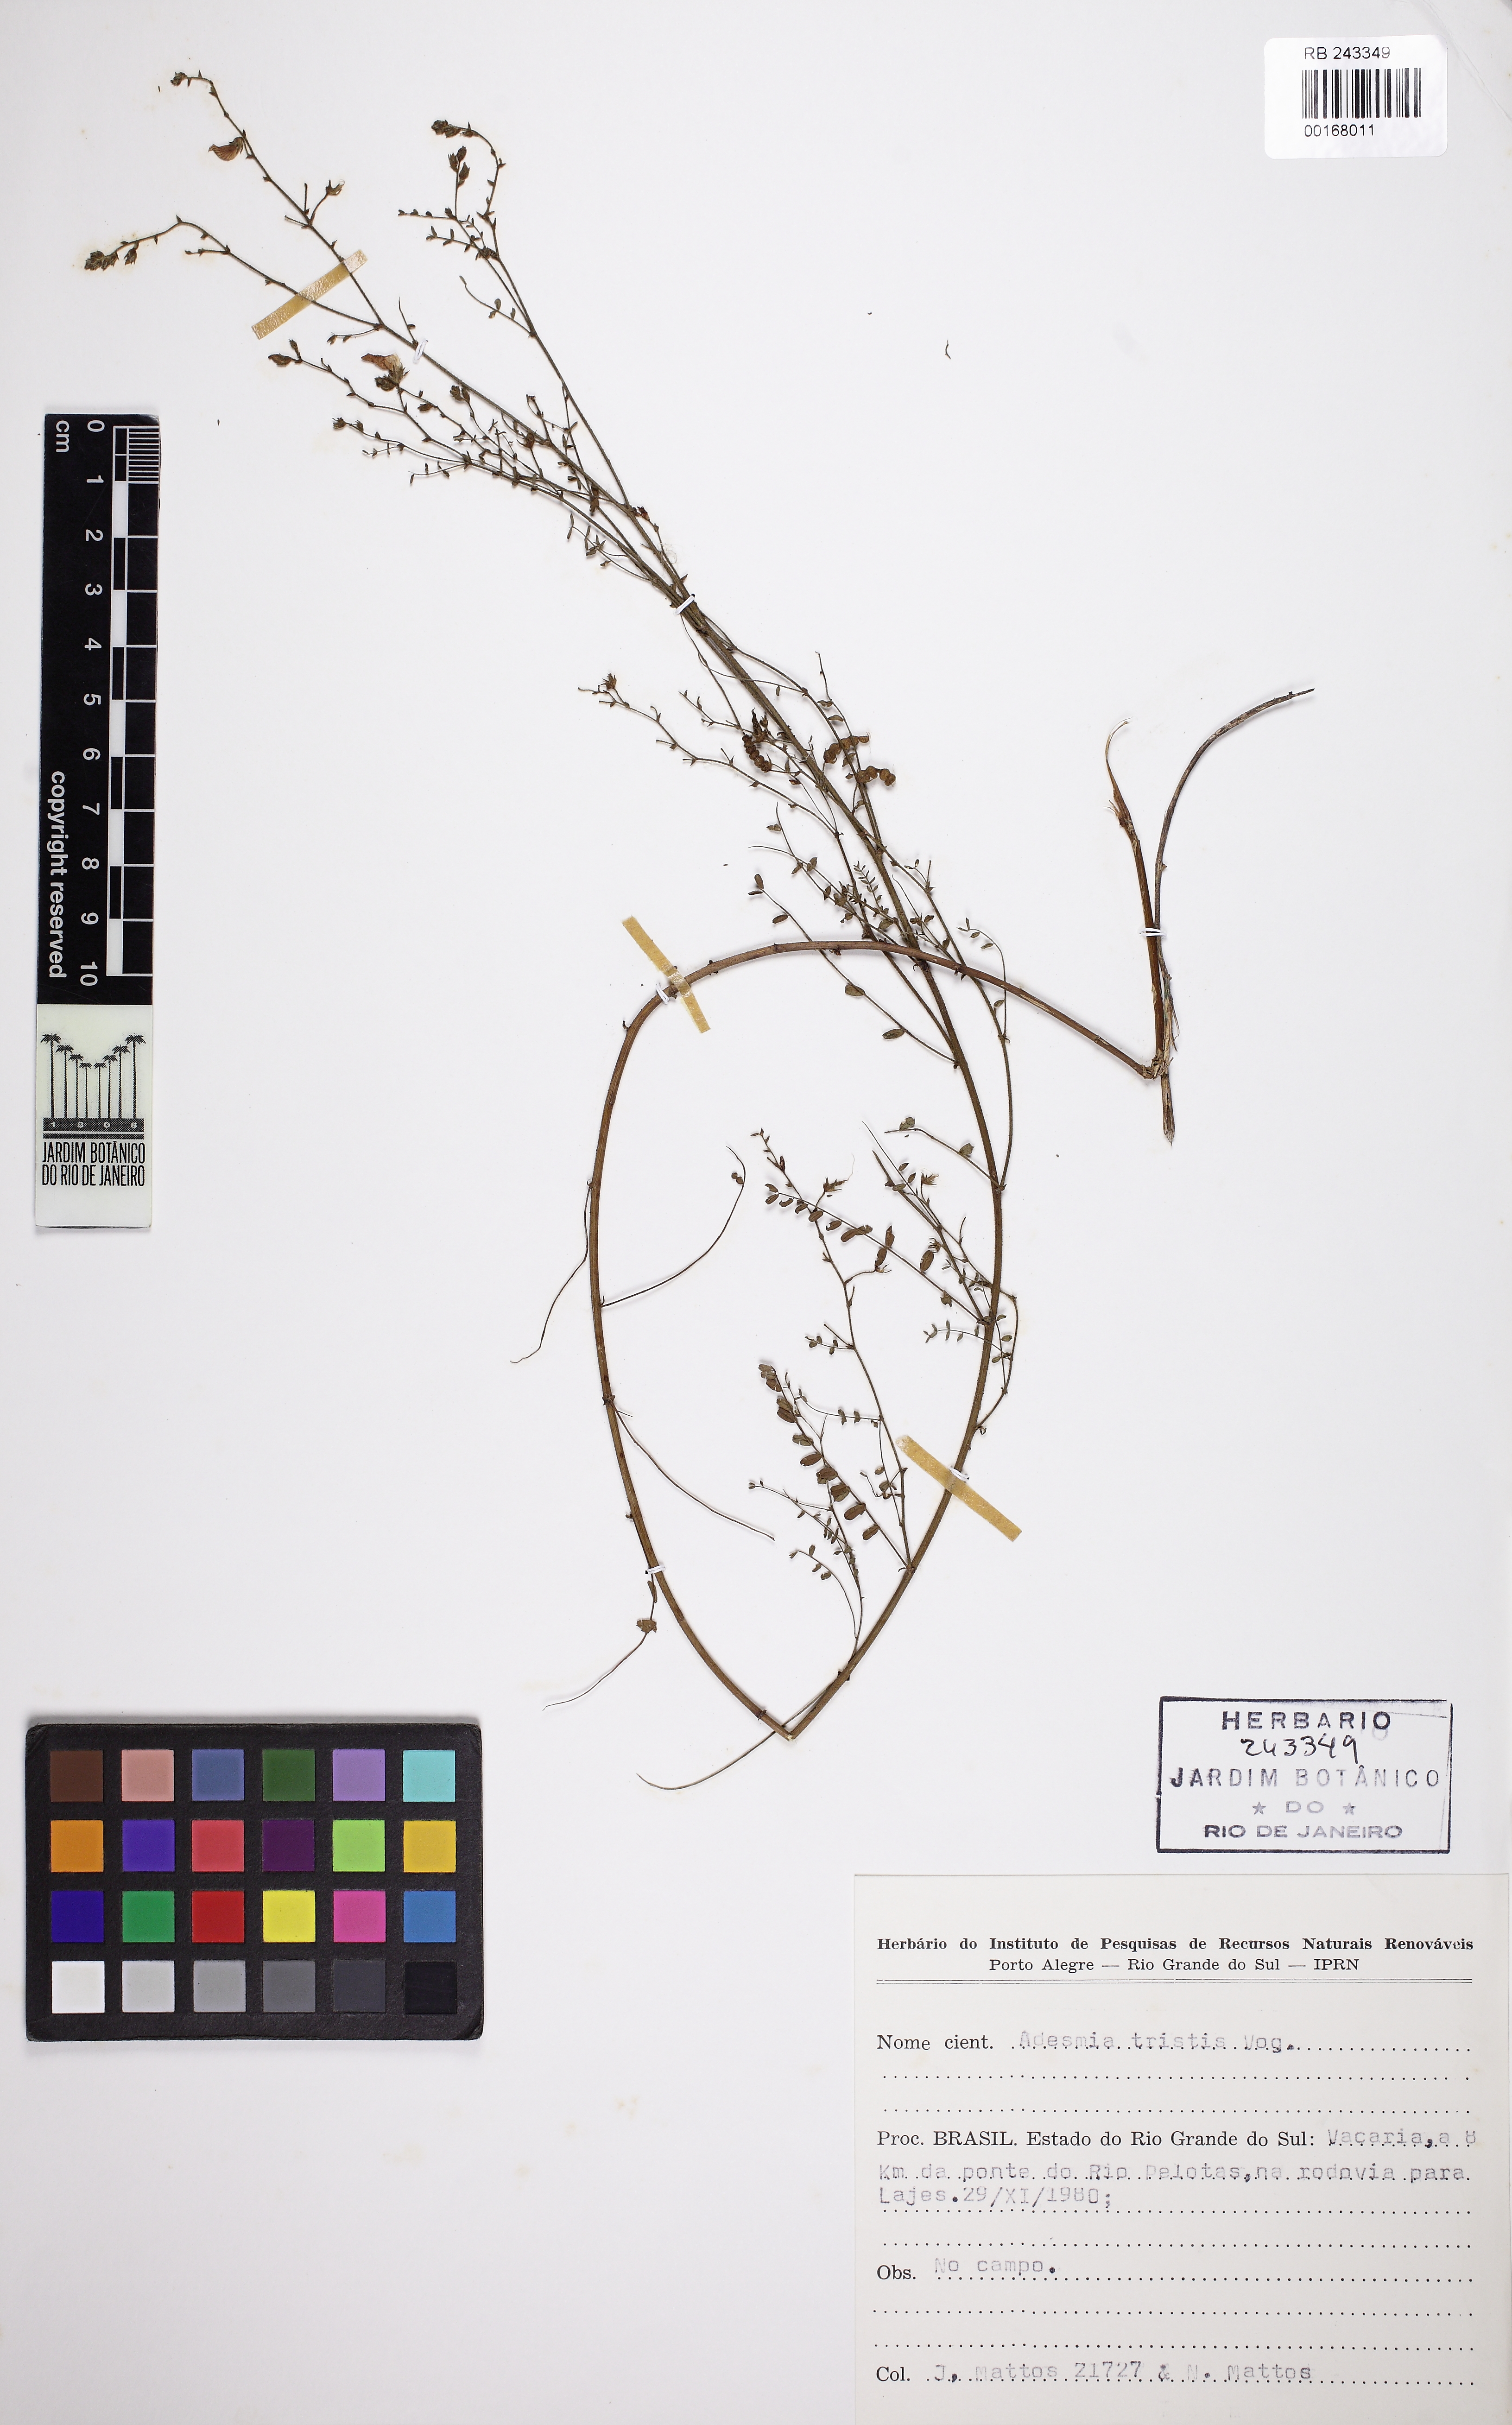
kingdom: Plantae
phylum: Tracheophyta
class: Magnoliopsida
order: Fabales
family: Fabaceae
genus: Adesmia
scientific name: Adesmia tristis
